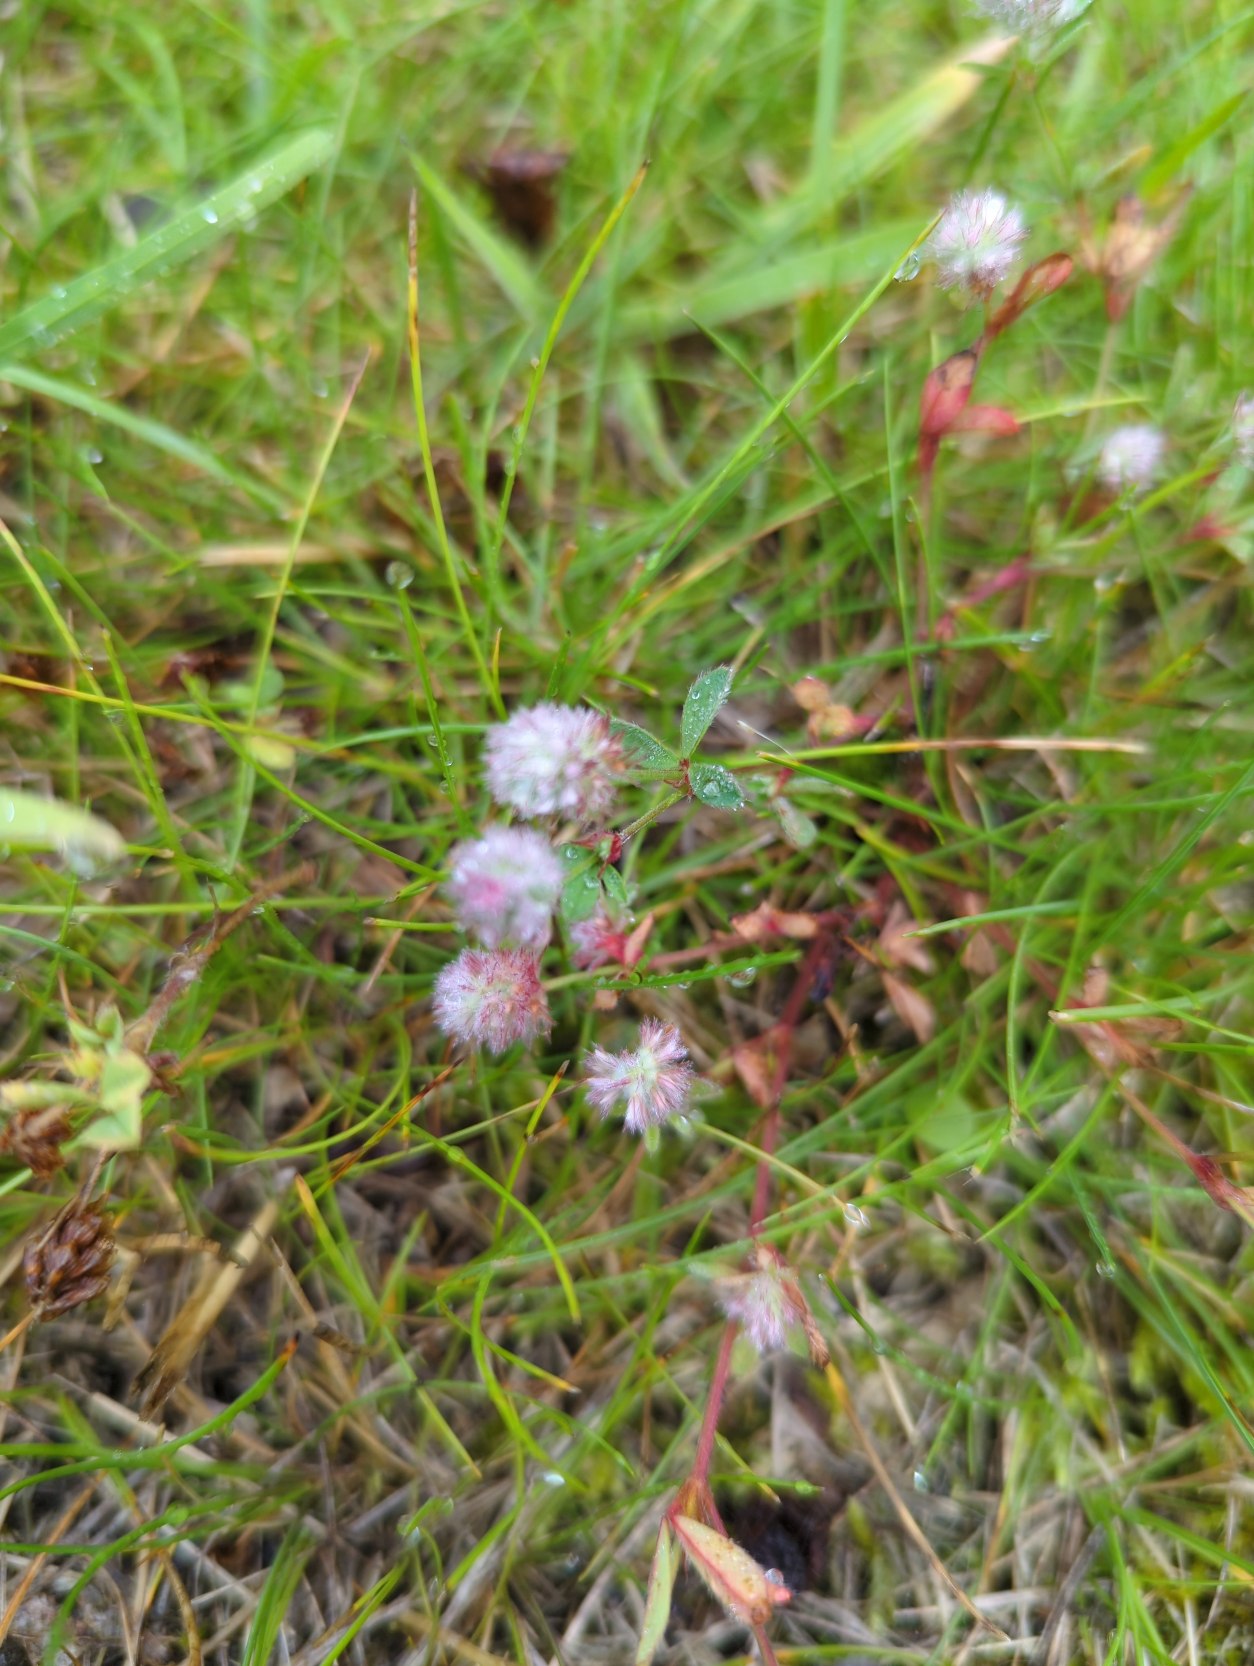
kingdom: Plantae
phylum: Tracheophyta
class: Magnoliopsida
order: Fabales
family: Fabaceae
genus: Trifolium
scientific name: Trifolium arvense
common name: Hare-kløver
